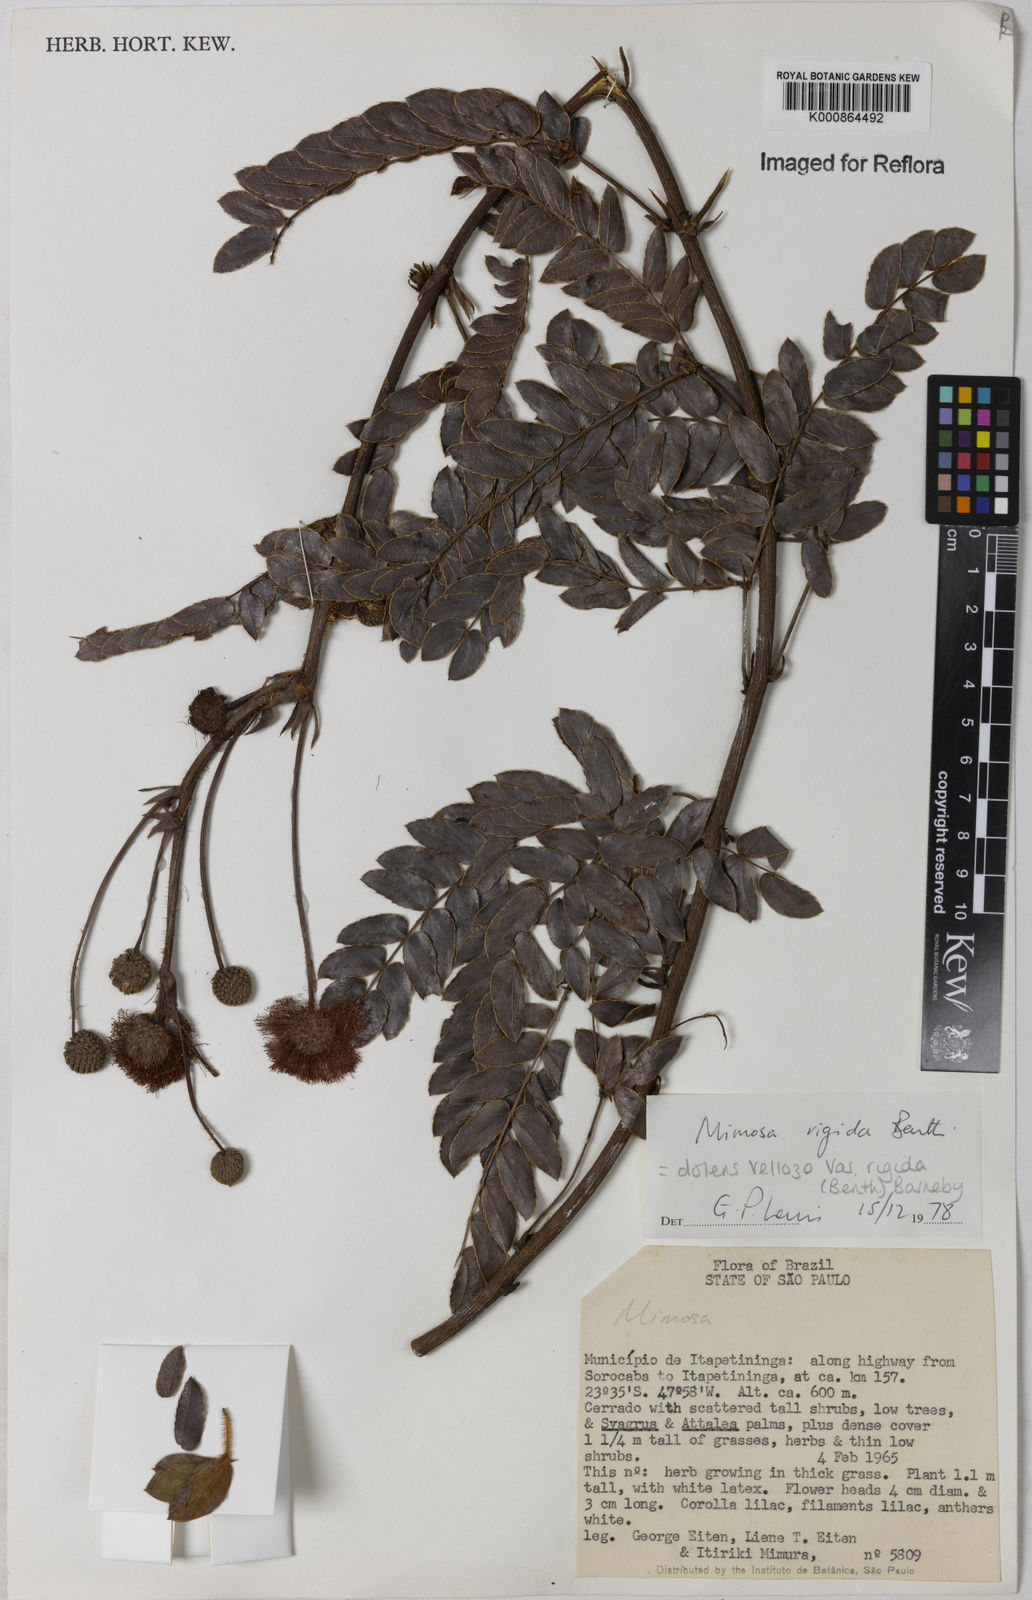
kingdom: Plantae
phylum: Tracheophyta
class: Magnoliopsida
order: Fabales
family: Fabaceae
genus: Mimosa
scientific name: Mimosa dolens
